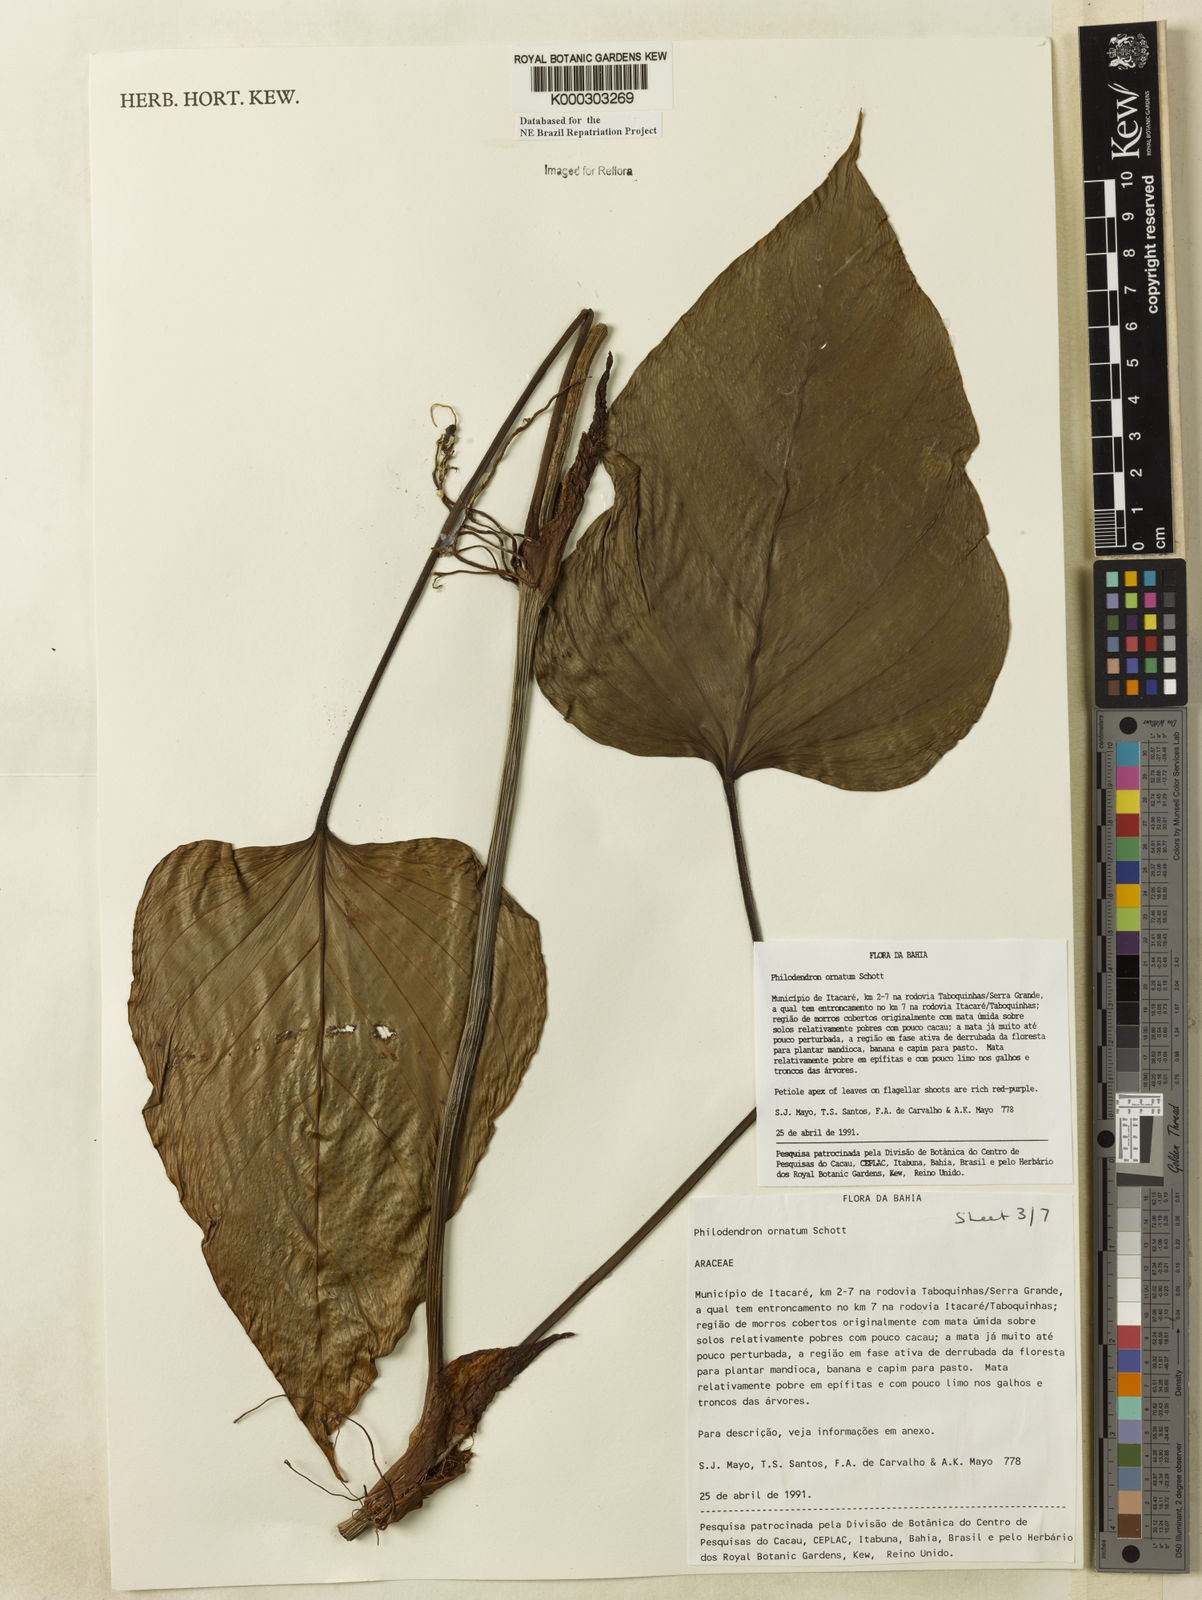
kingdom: Plantae
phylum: Tracheophyta
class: Liliopsida
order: Alismatales
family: Araceae
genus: Philodendron
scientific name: Philodendron ornatum
